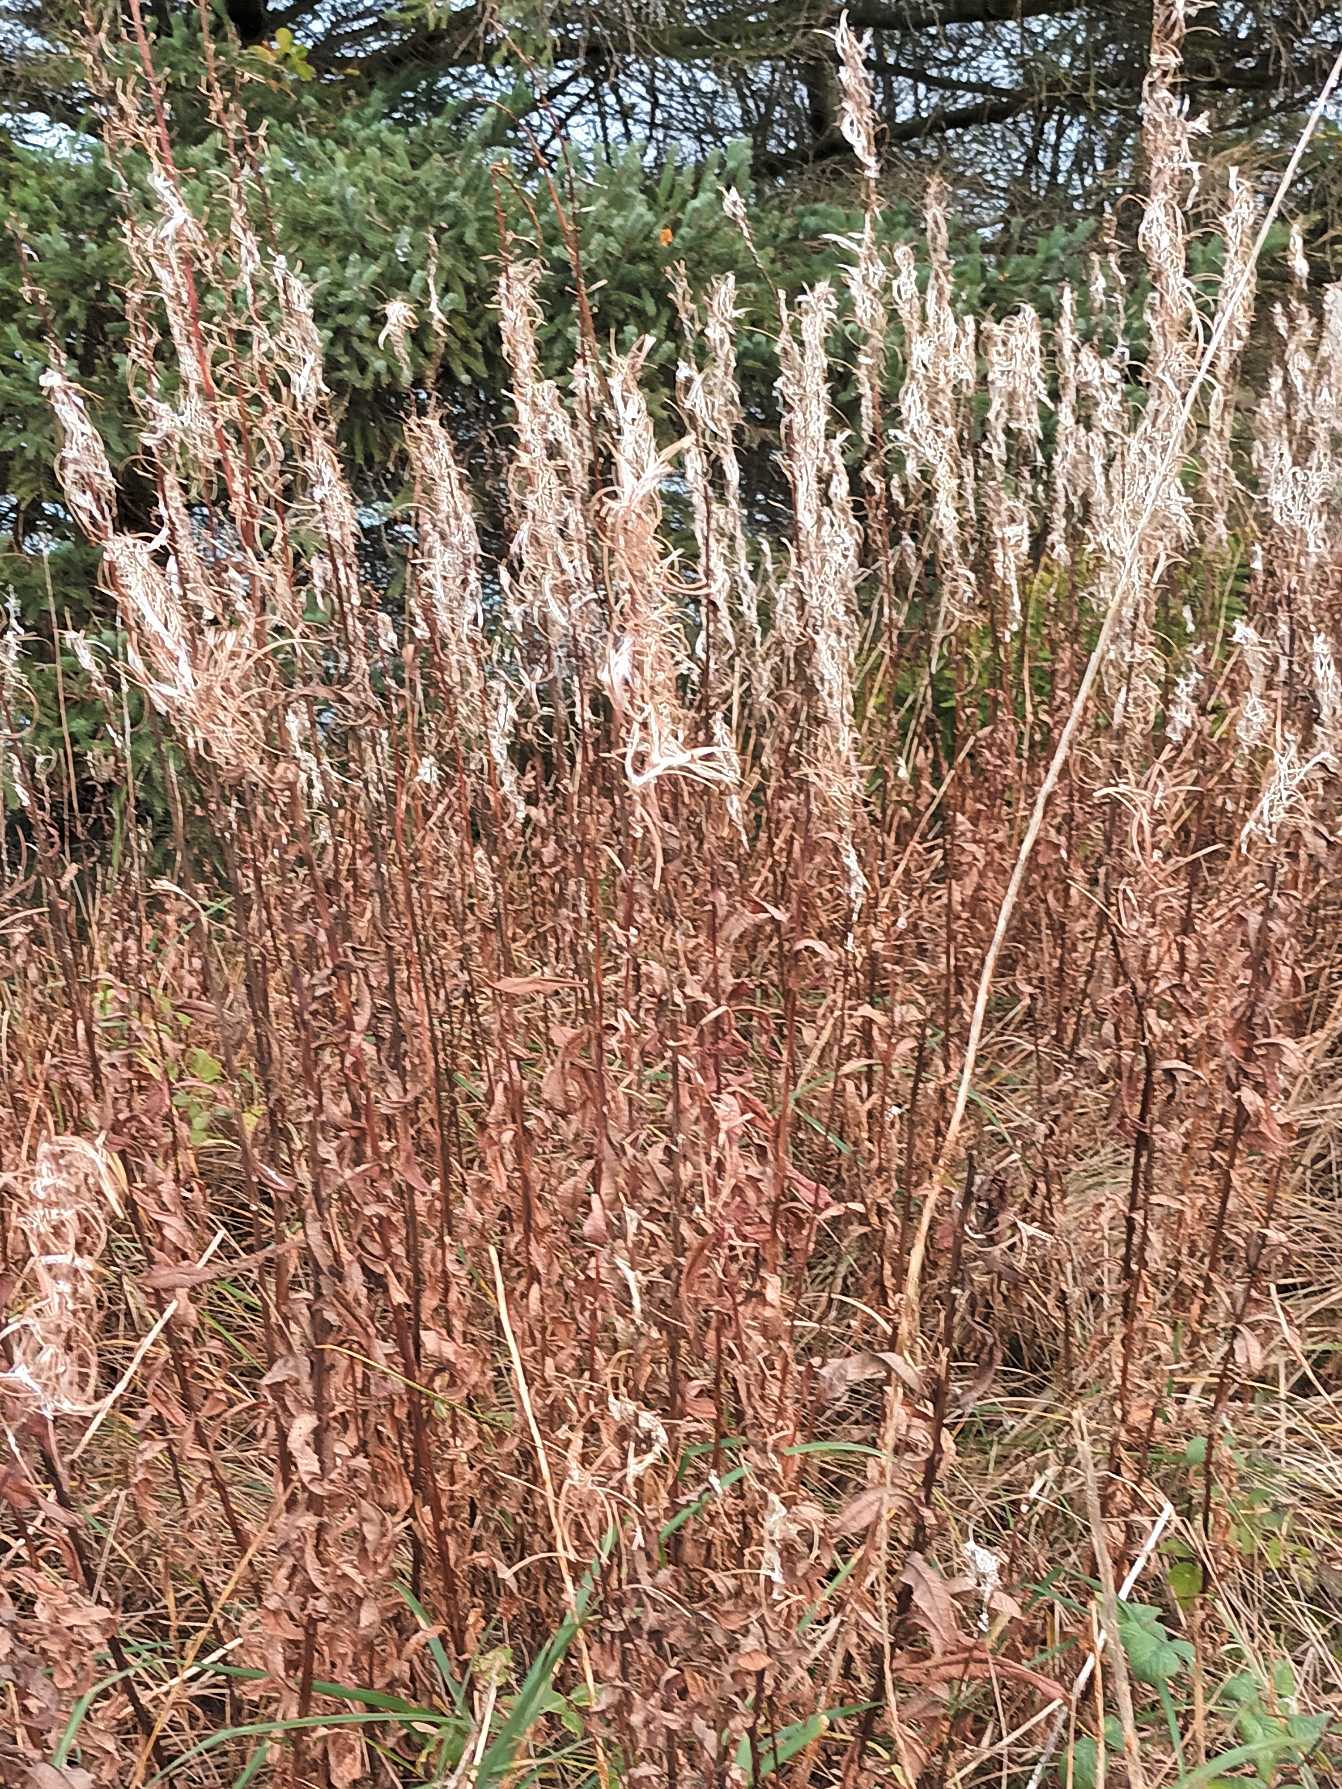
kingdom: Plantae
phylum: Tracheophyta
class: Magnoliopsida
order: Myrtales
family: Onagraceae
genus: Chamaenerion
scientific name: Chamaenerion angustifolium
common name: Gederams
